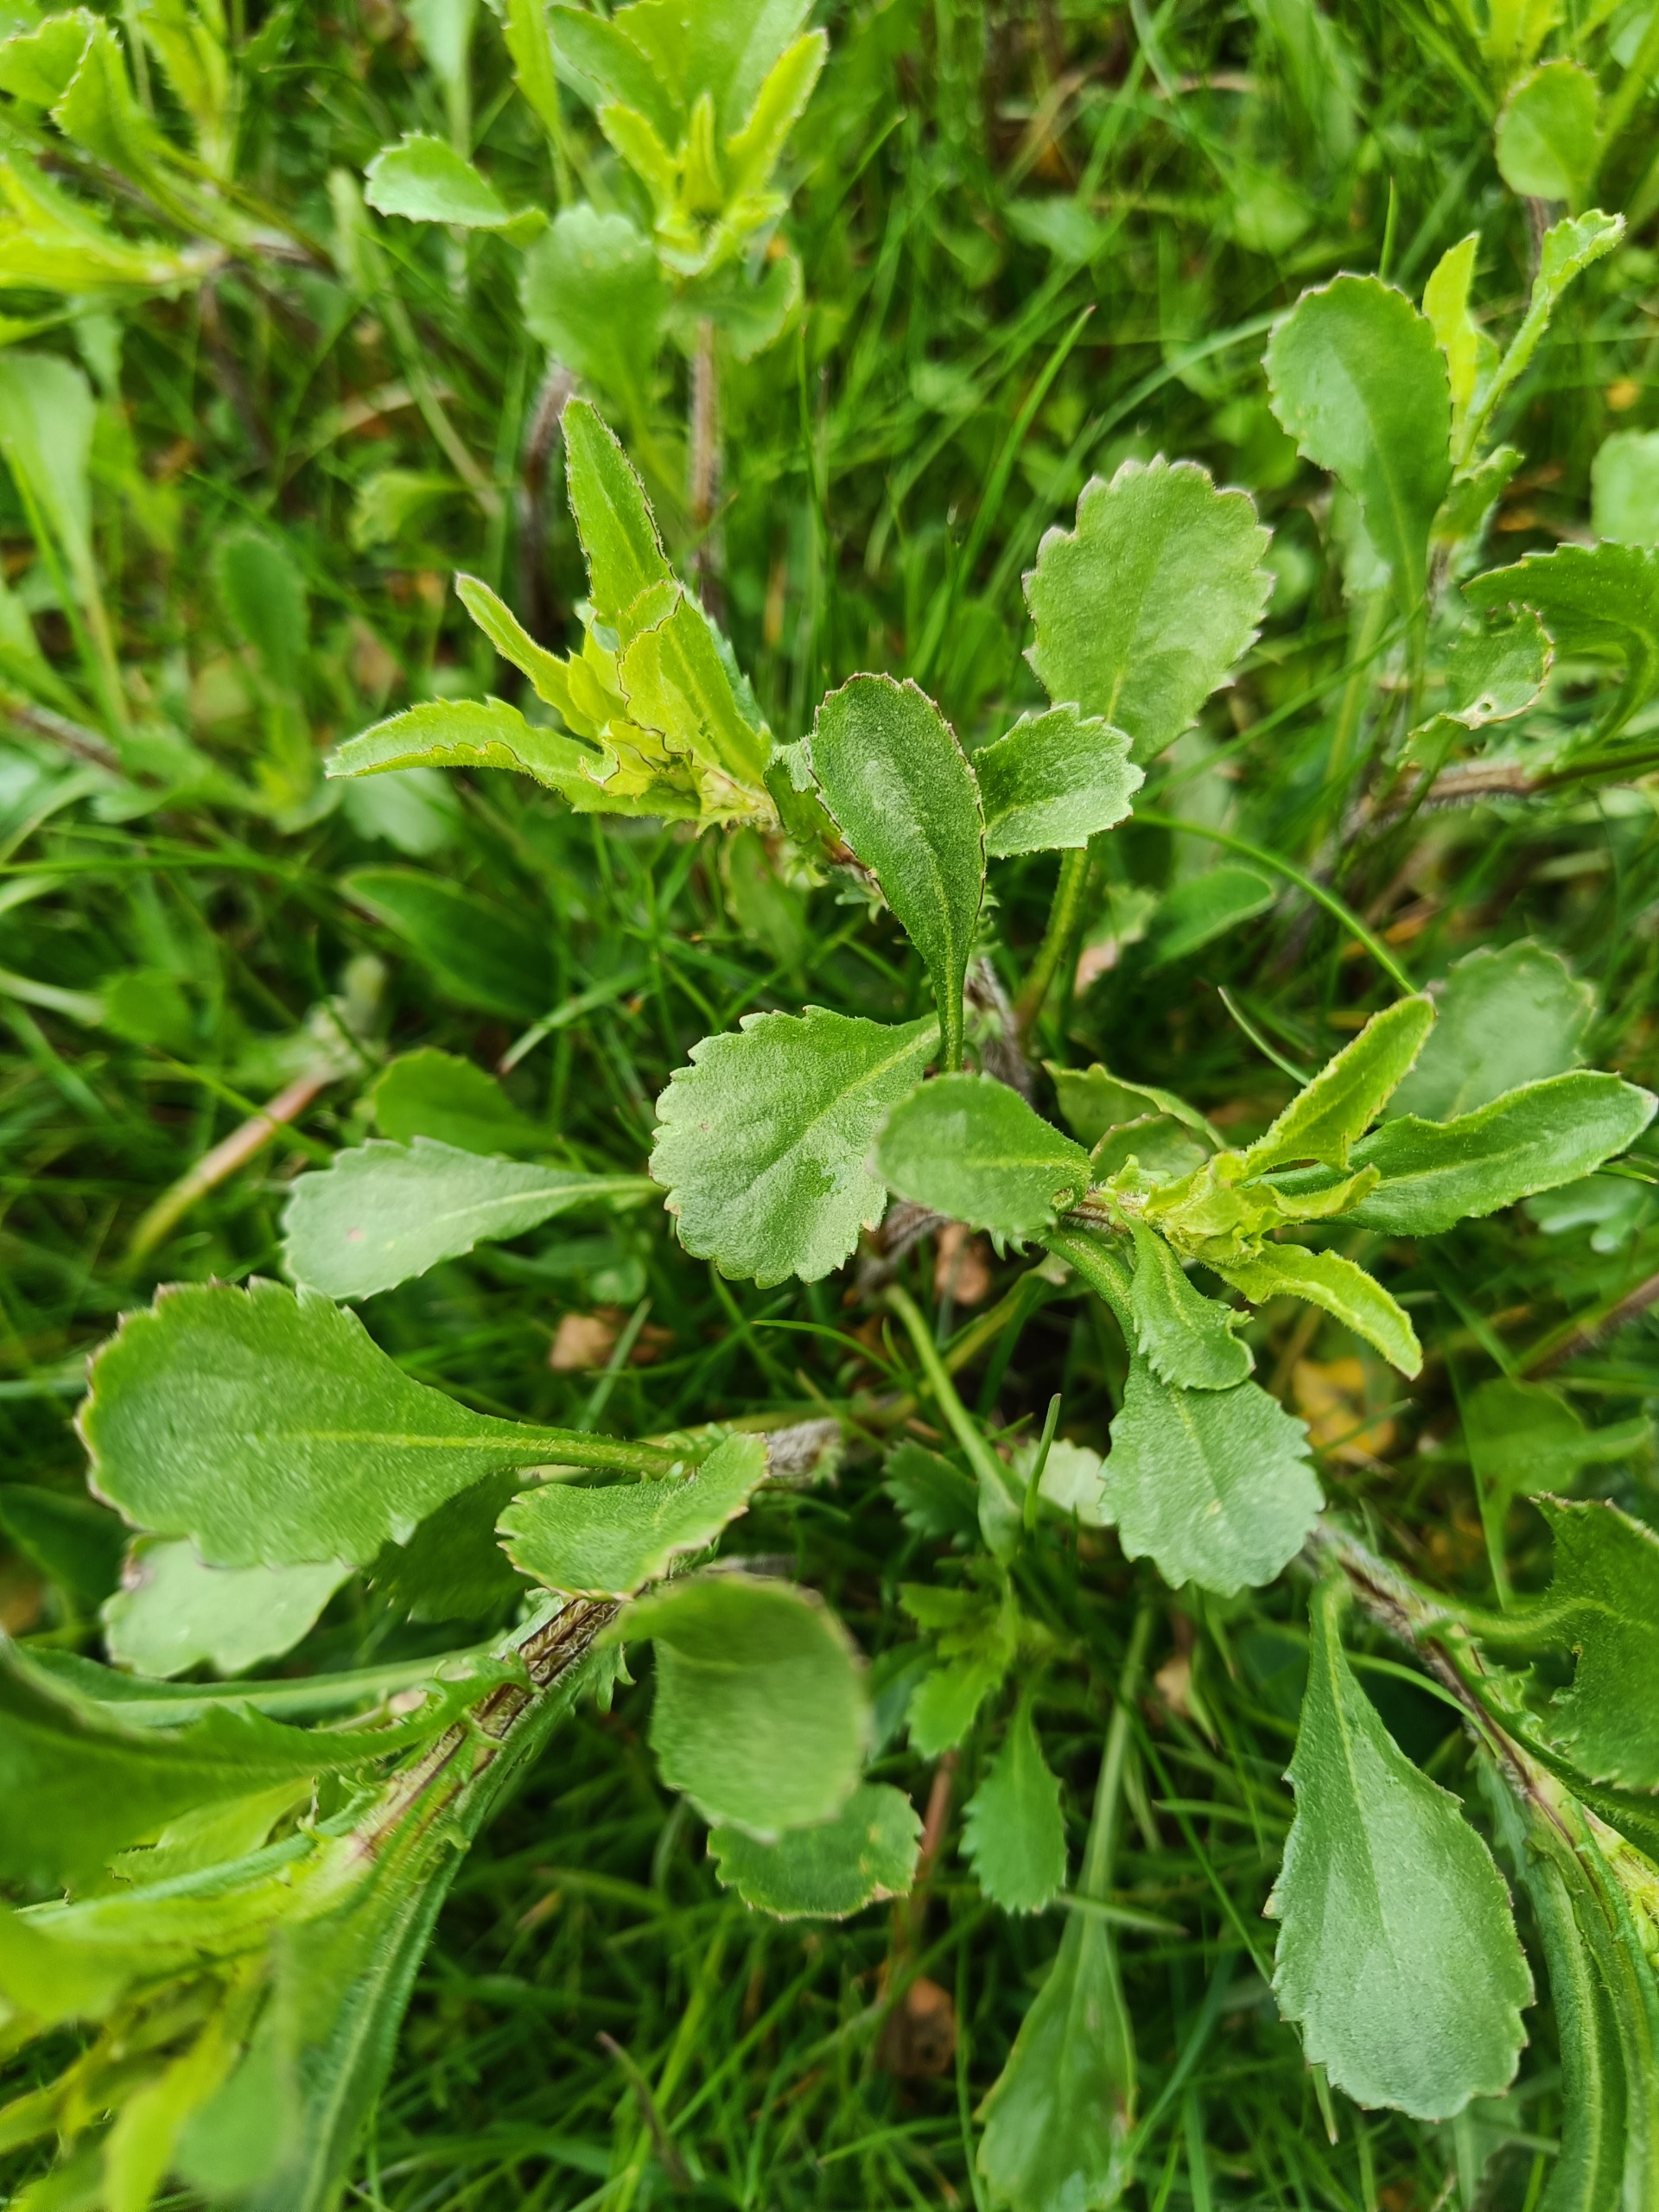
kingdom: Plantae
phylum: Tracheophyta
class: Magnoliopsida
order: Asterales
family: Asteraceae
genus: Leucanthemum
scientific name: Leucanthemum vulgare
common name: Hvid okseøje
